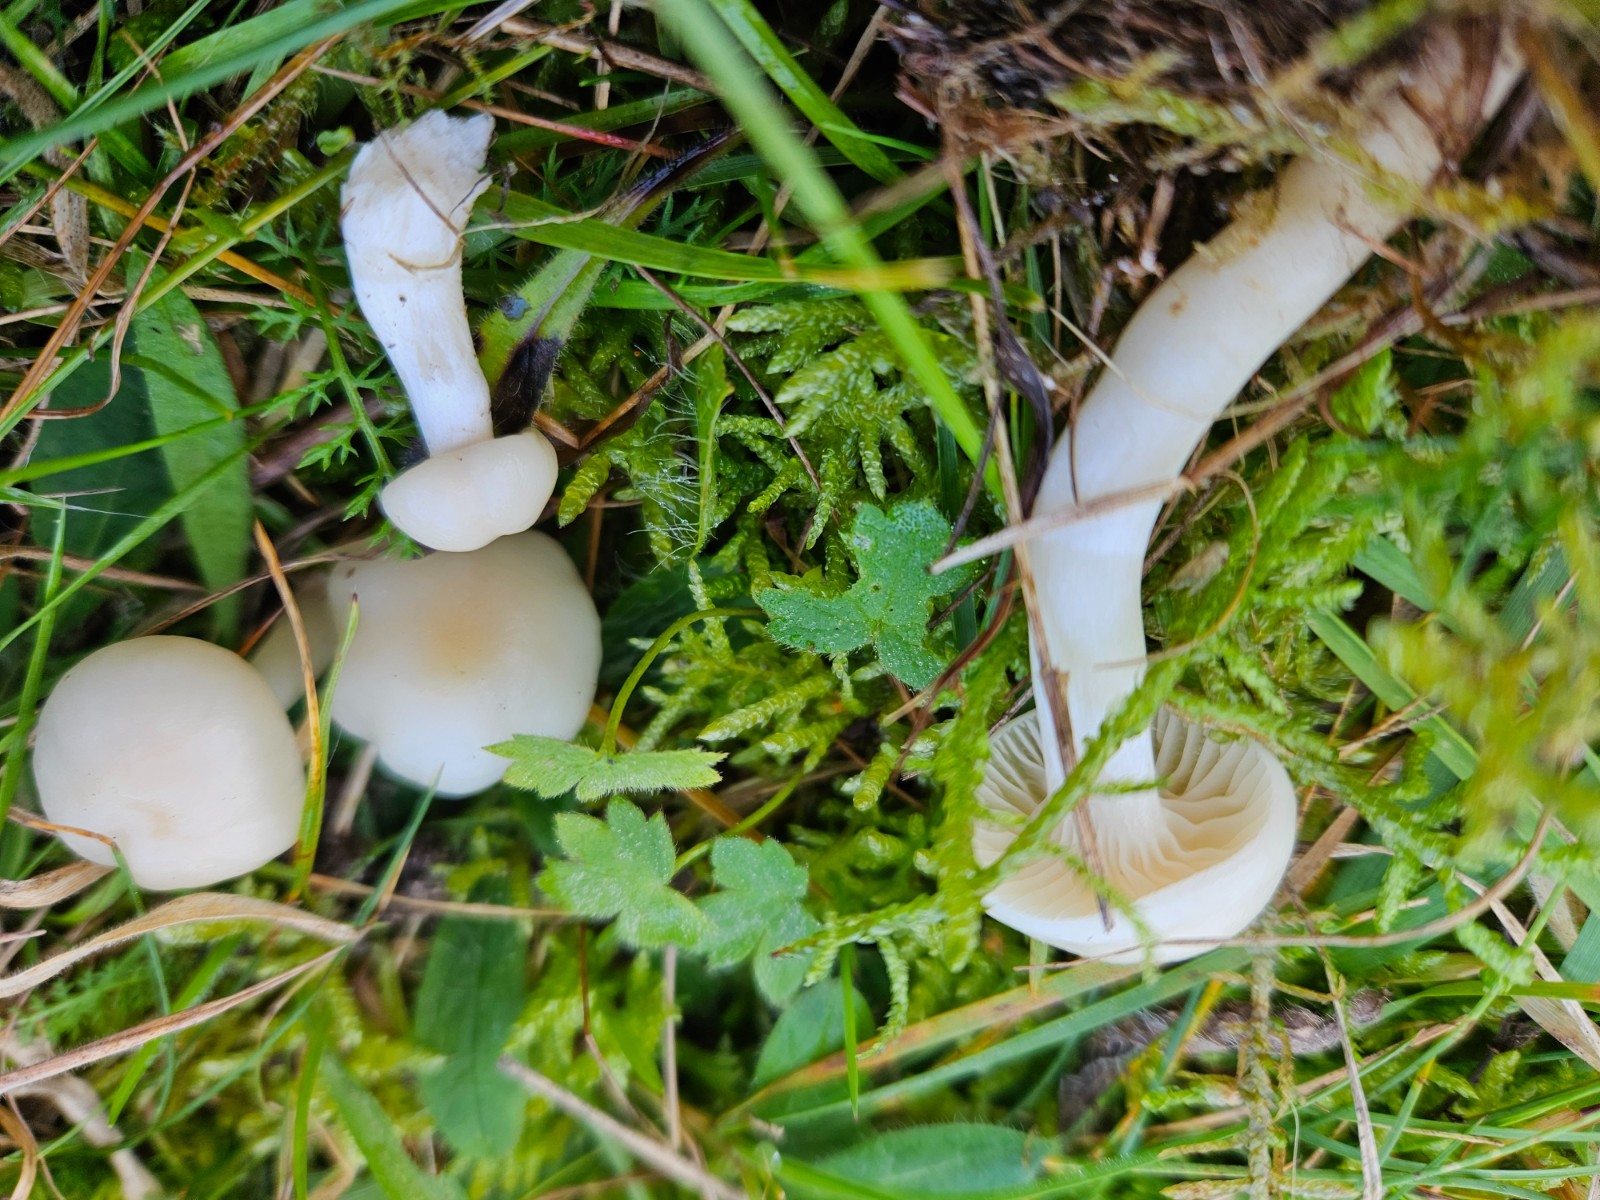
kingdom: Fungi
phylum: Basidiomycota
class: Agaricomycetes
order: Agaricales
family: Hygrophoraceae
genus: Cuphophyllus
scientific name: Cuphophyllus virgineus
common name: snehvid vokshat
